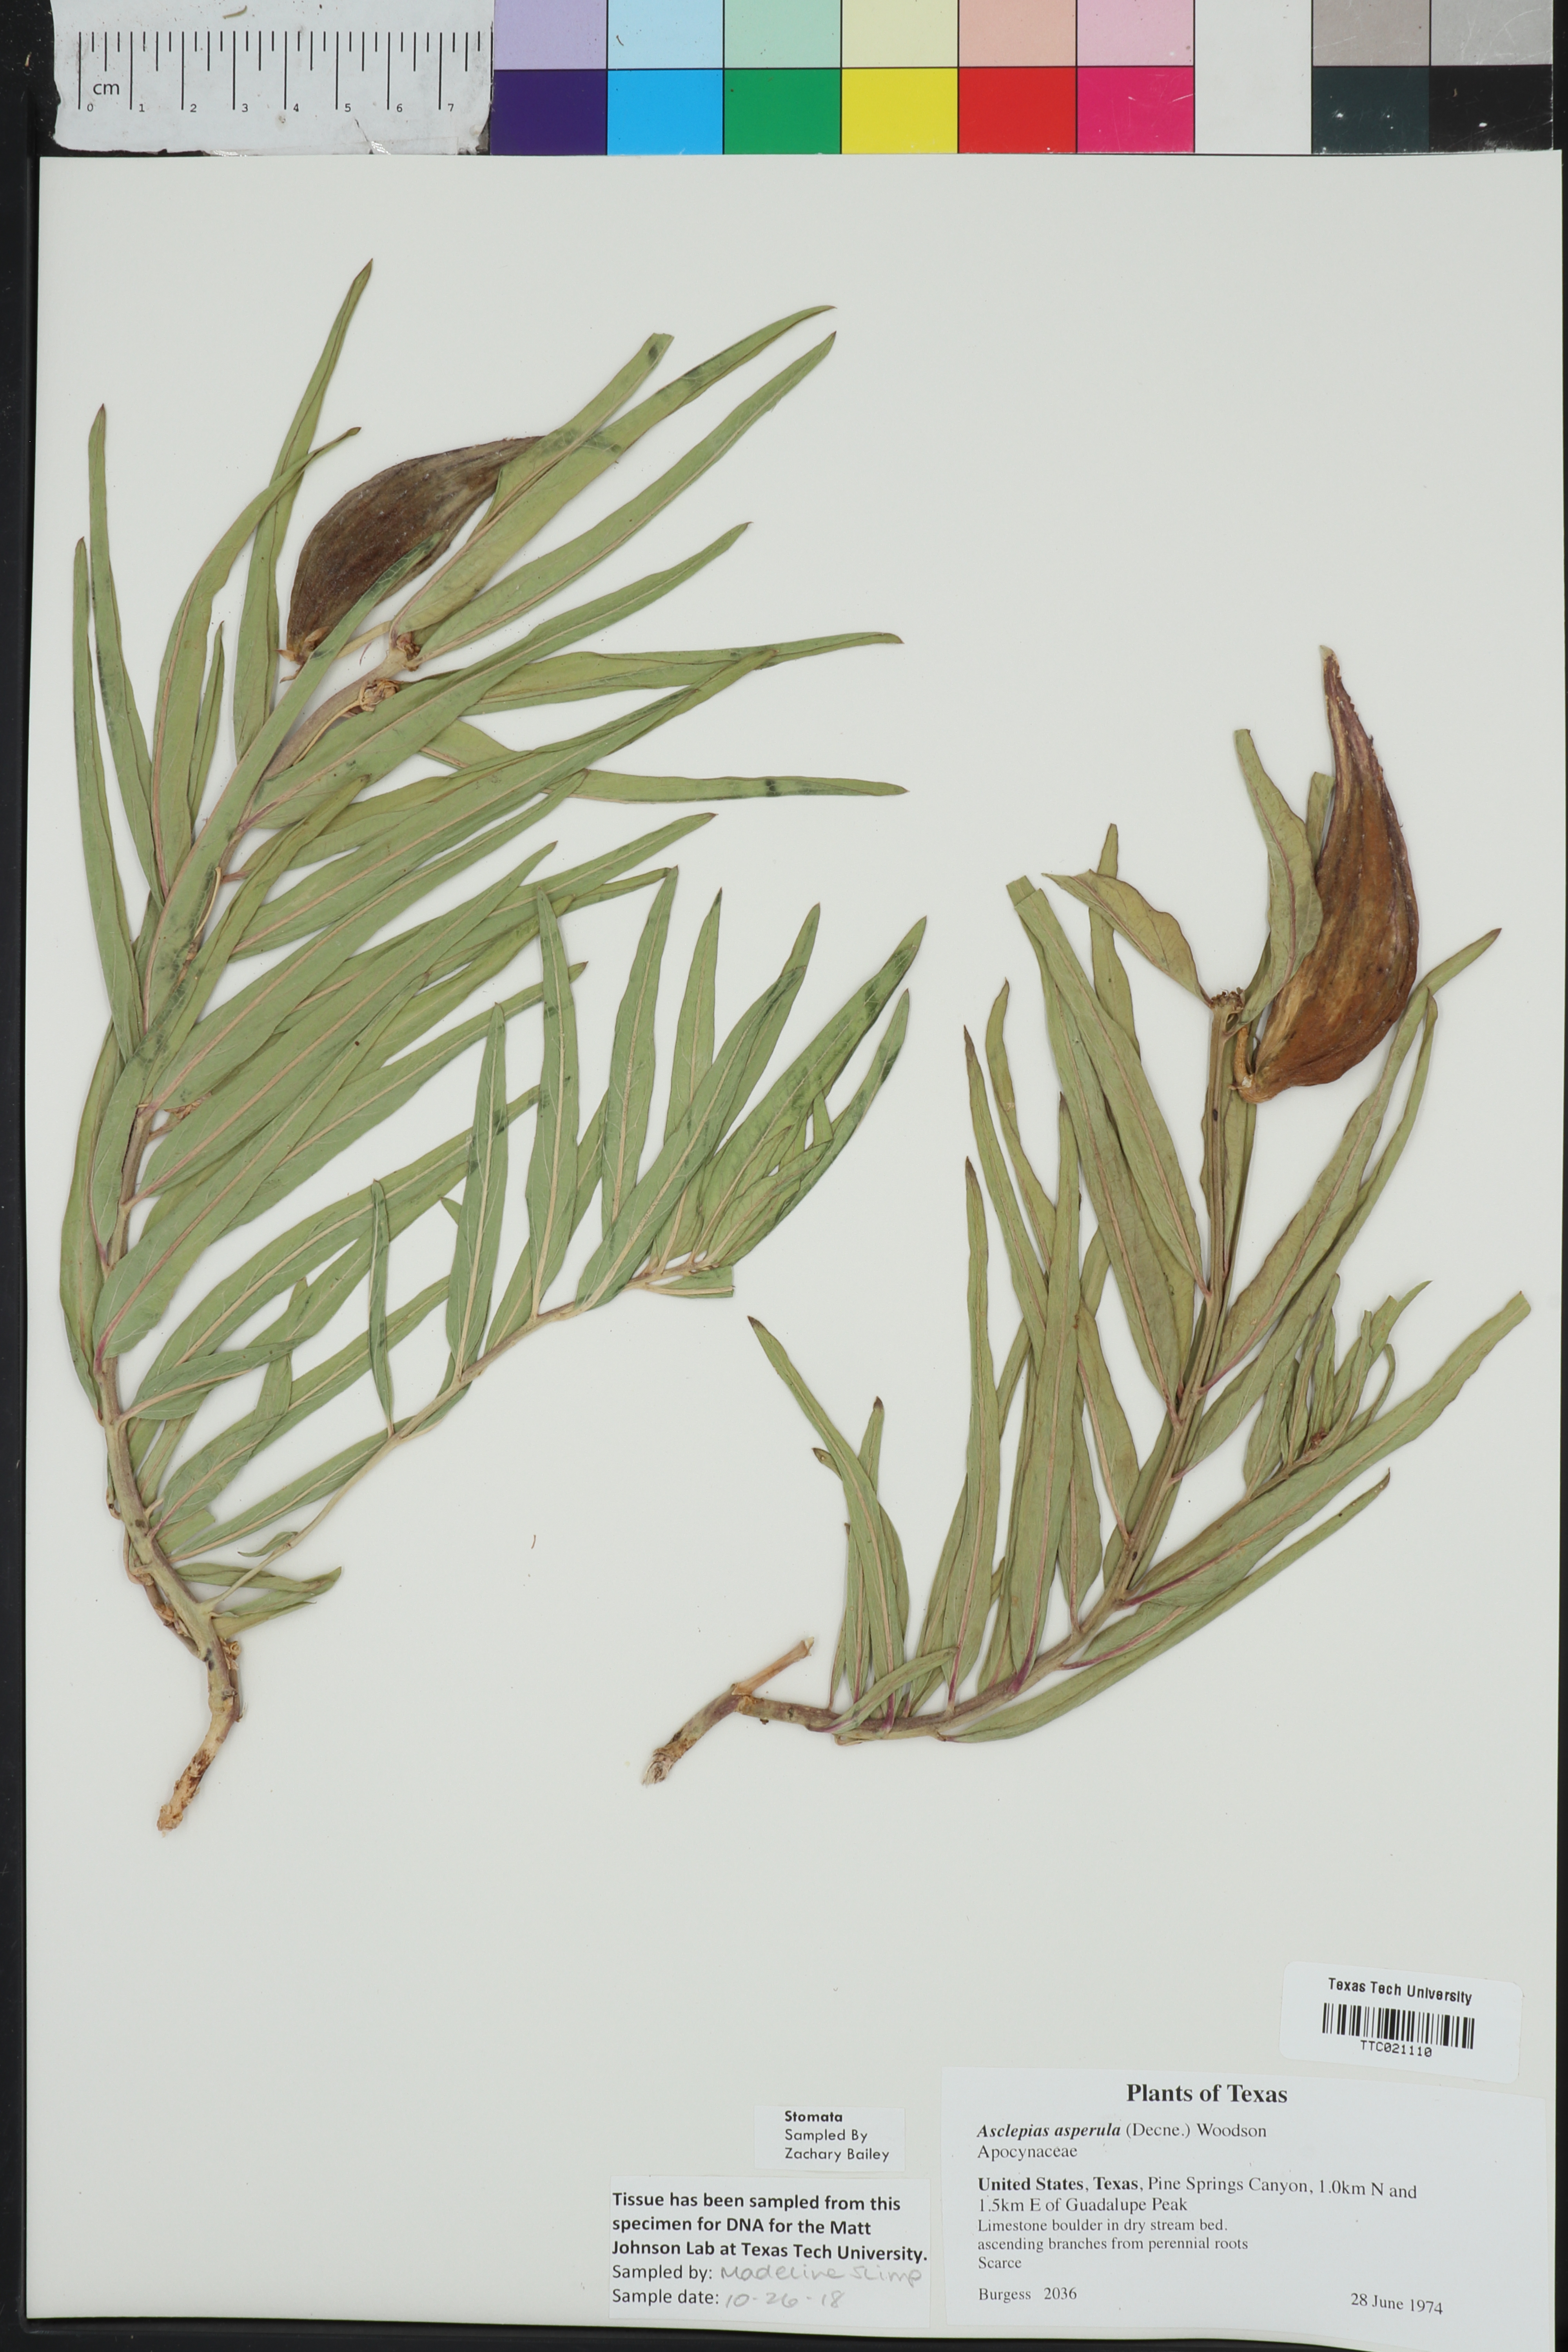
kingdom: Plantae
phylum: Tracheophyta
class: Magnoliopsida
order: Gentianales
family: Apocynaceae
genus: Asclepias
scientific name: Asclepias asperula
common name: Antelope horns
